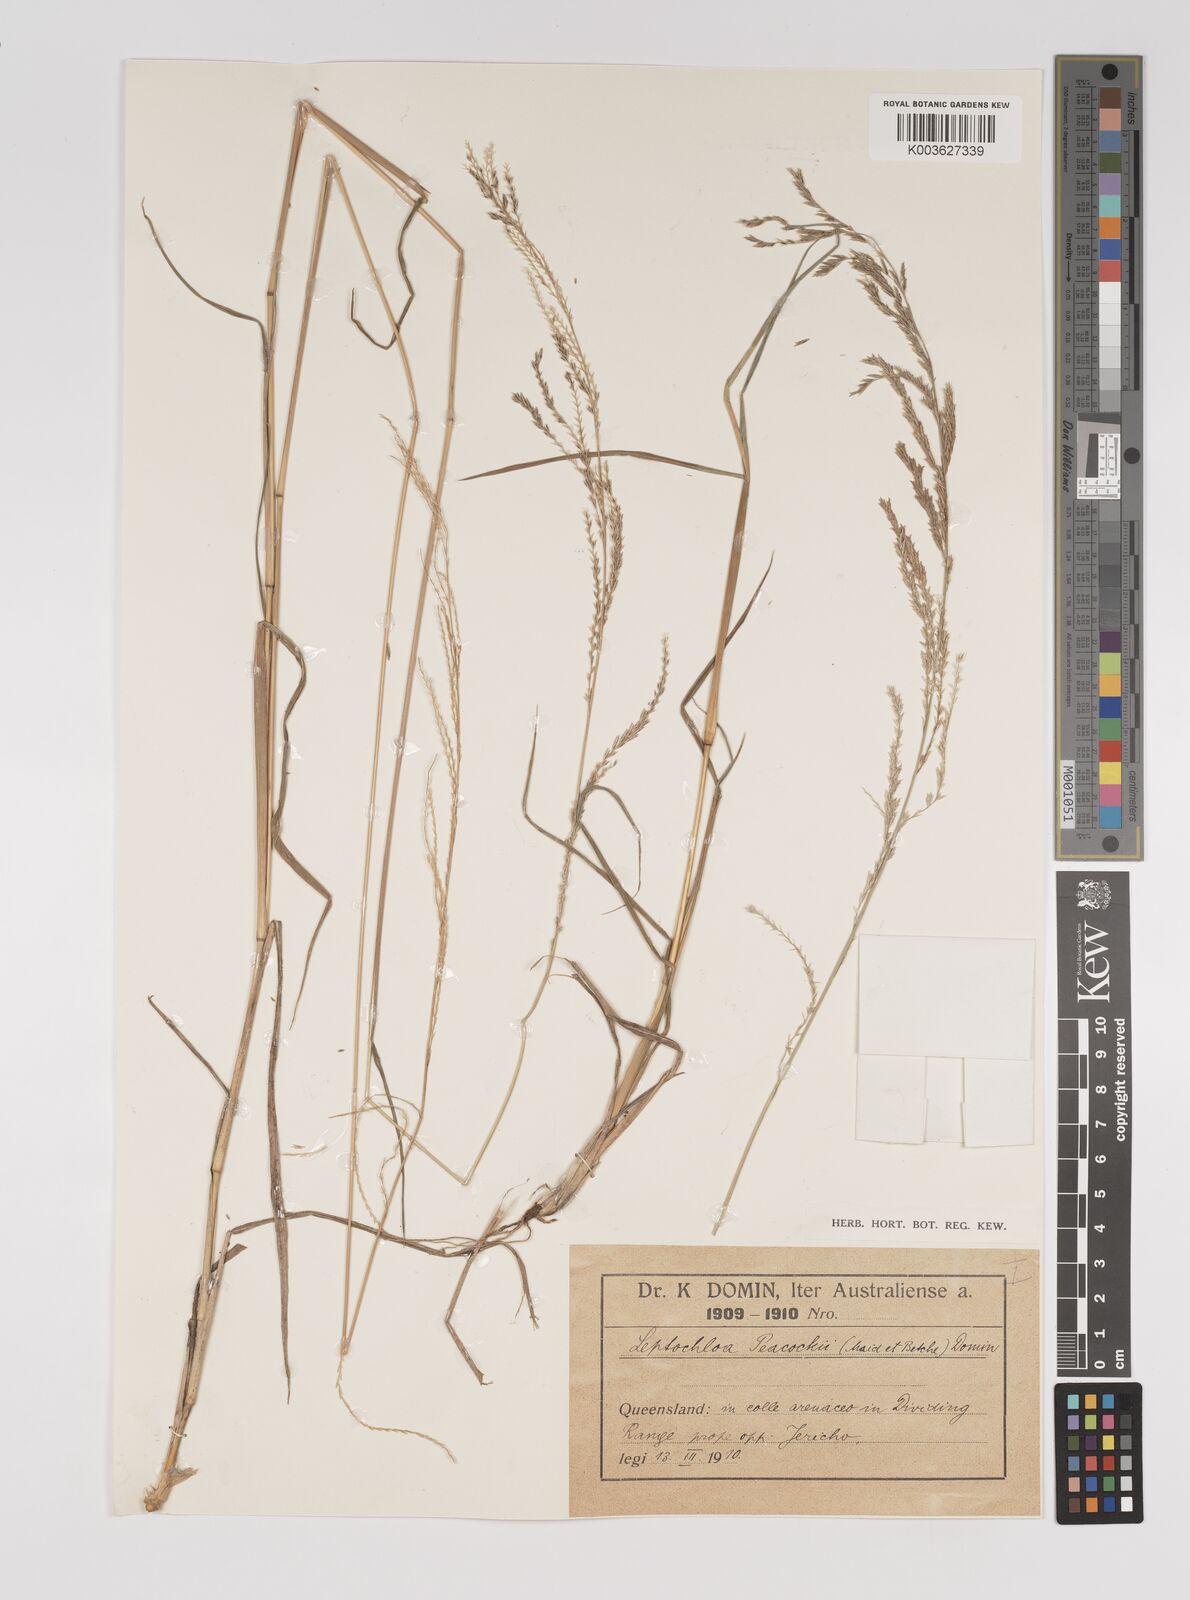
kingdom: Plantae
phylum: Tracheophyta
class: Liliopsida
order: Poales
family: Poaceae
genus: Leptochloa
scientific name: Leptochloa decipiens
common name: Australian sprangletop
